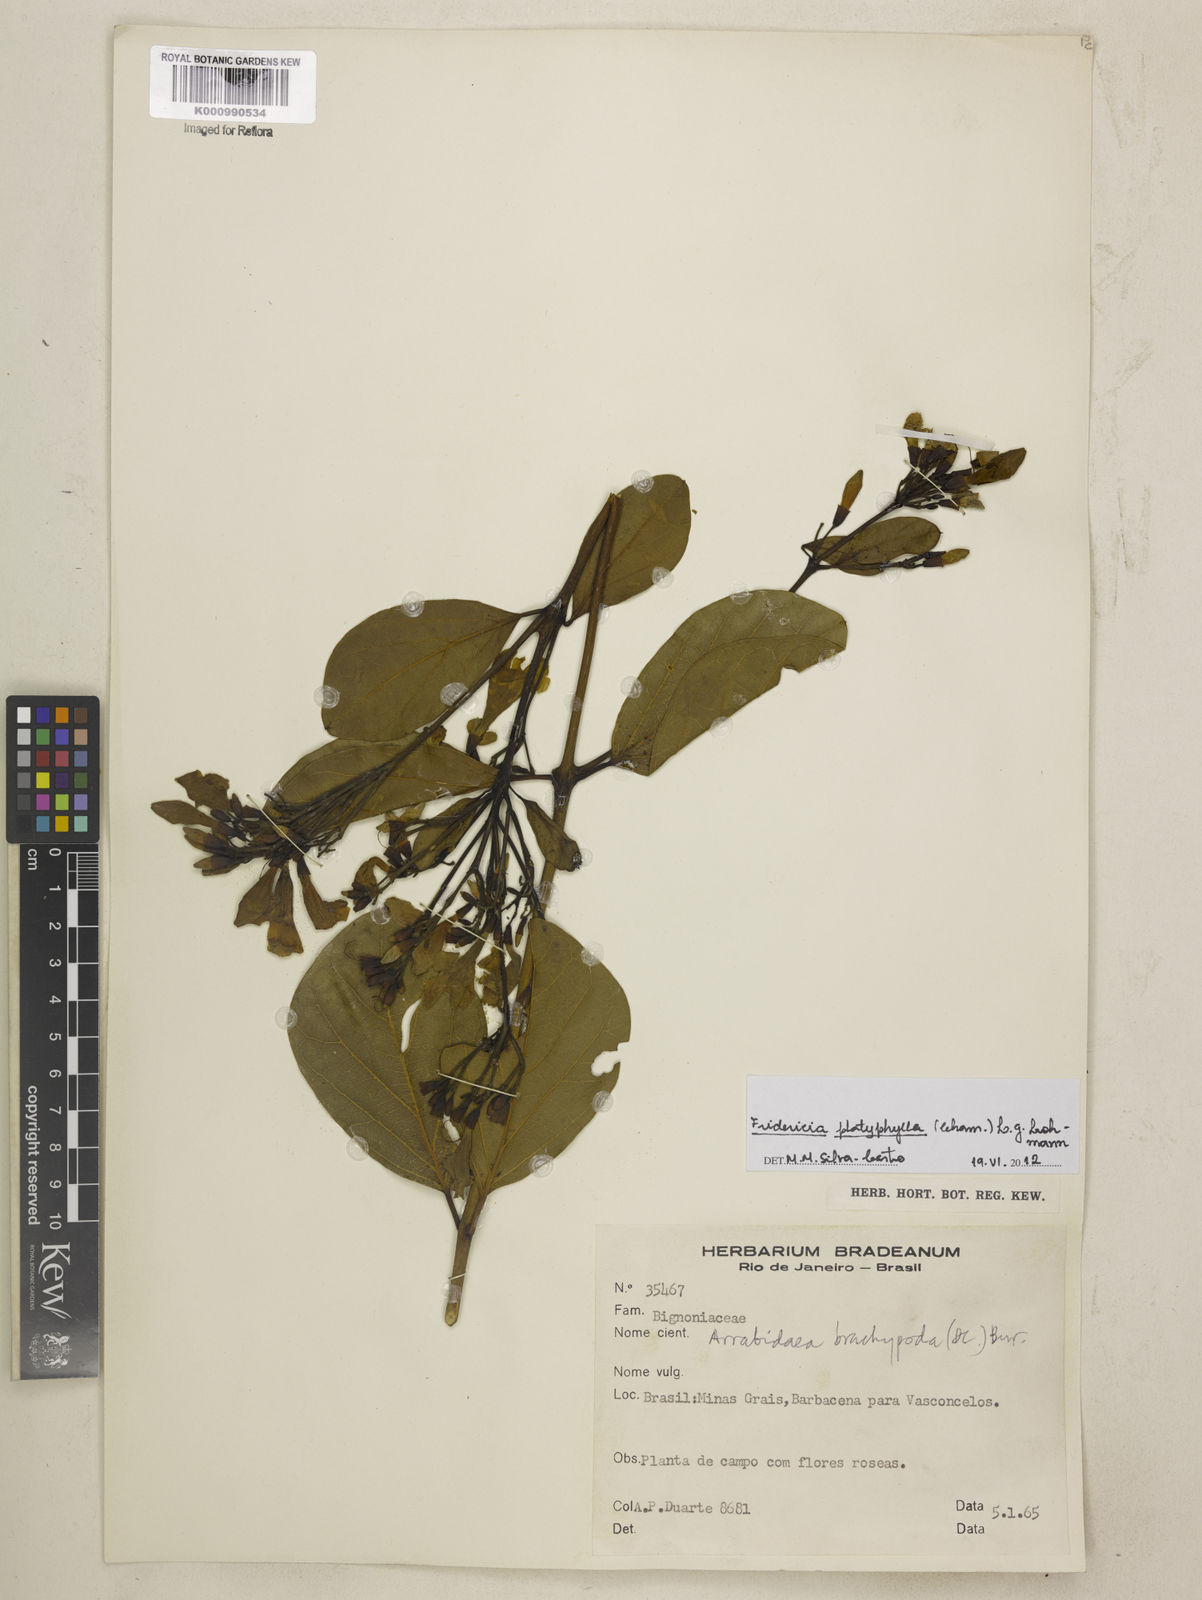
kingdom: Plantae
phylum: Tracheophyta
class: Magnoliopsida
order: Lamiales
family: Bignoniaceae
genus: Fridericia
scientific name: Fridericia platyphylla
